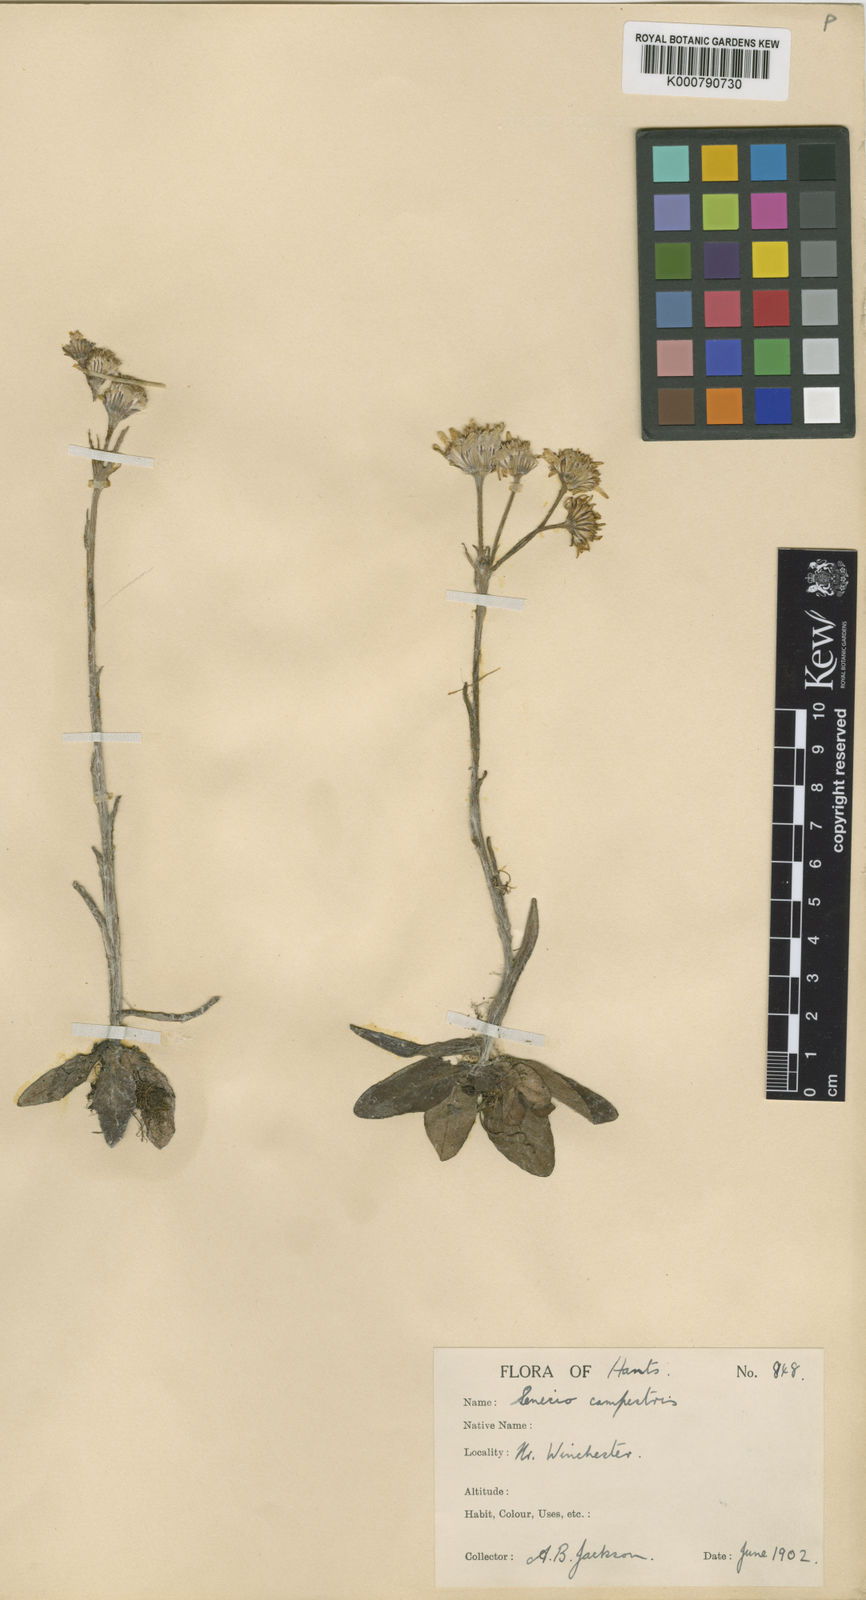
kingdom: Plantae
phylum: Tracheophyta
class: Magnoliopsida
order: Asterales
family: Asteraceae
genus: Tephroseris
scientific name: Tephroseris integrifolia
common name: Field fleawort
